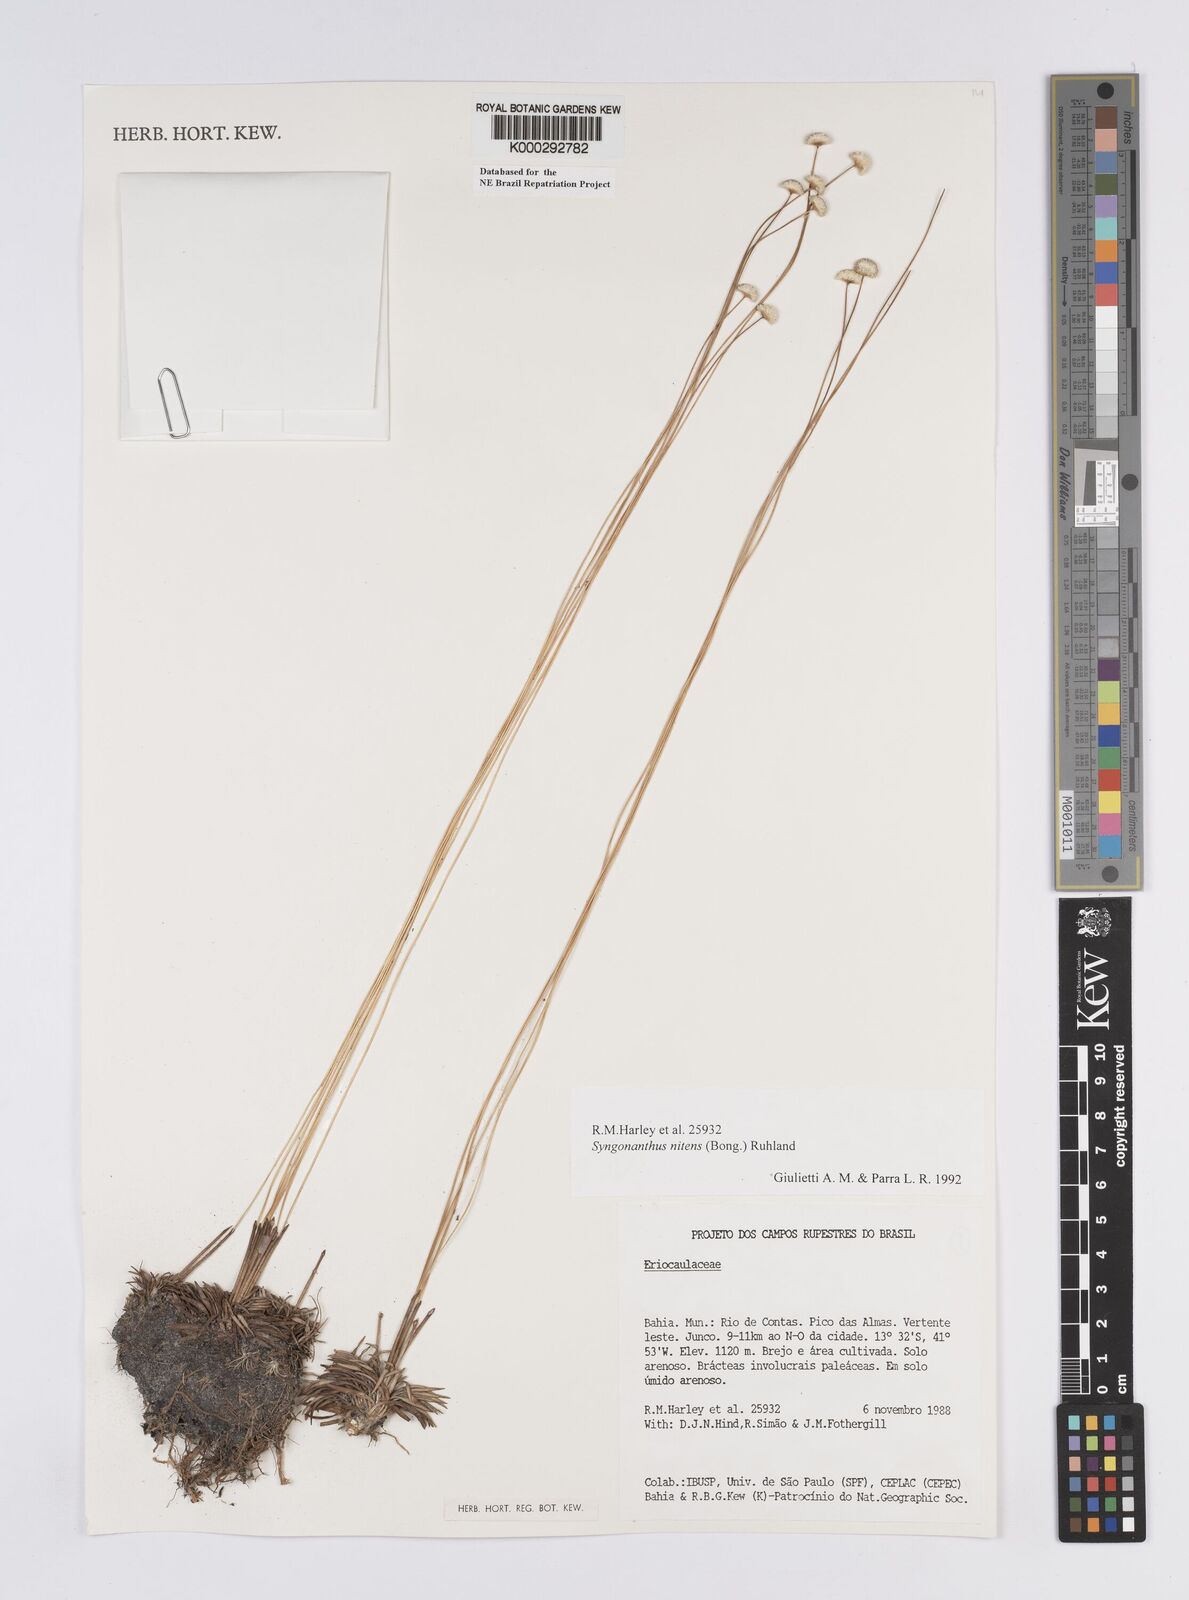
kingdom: Plantae
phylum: Tracheophyta
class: Liliopsida
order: Poales
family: Eriocaulaceae
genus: Syngonanthus
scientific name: Syngonanthus
